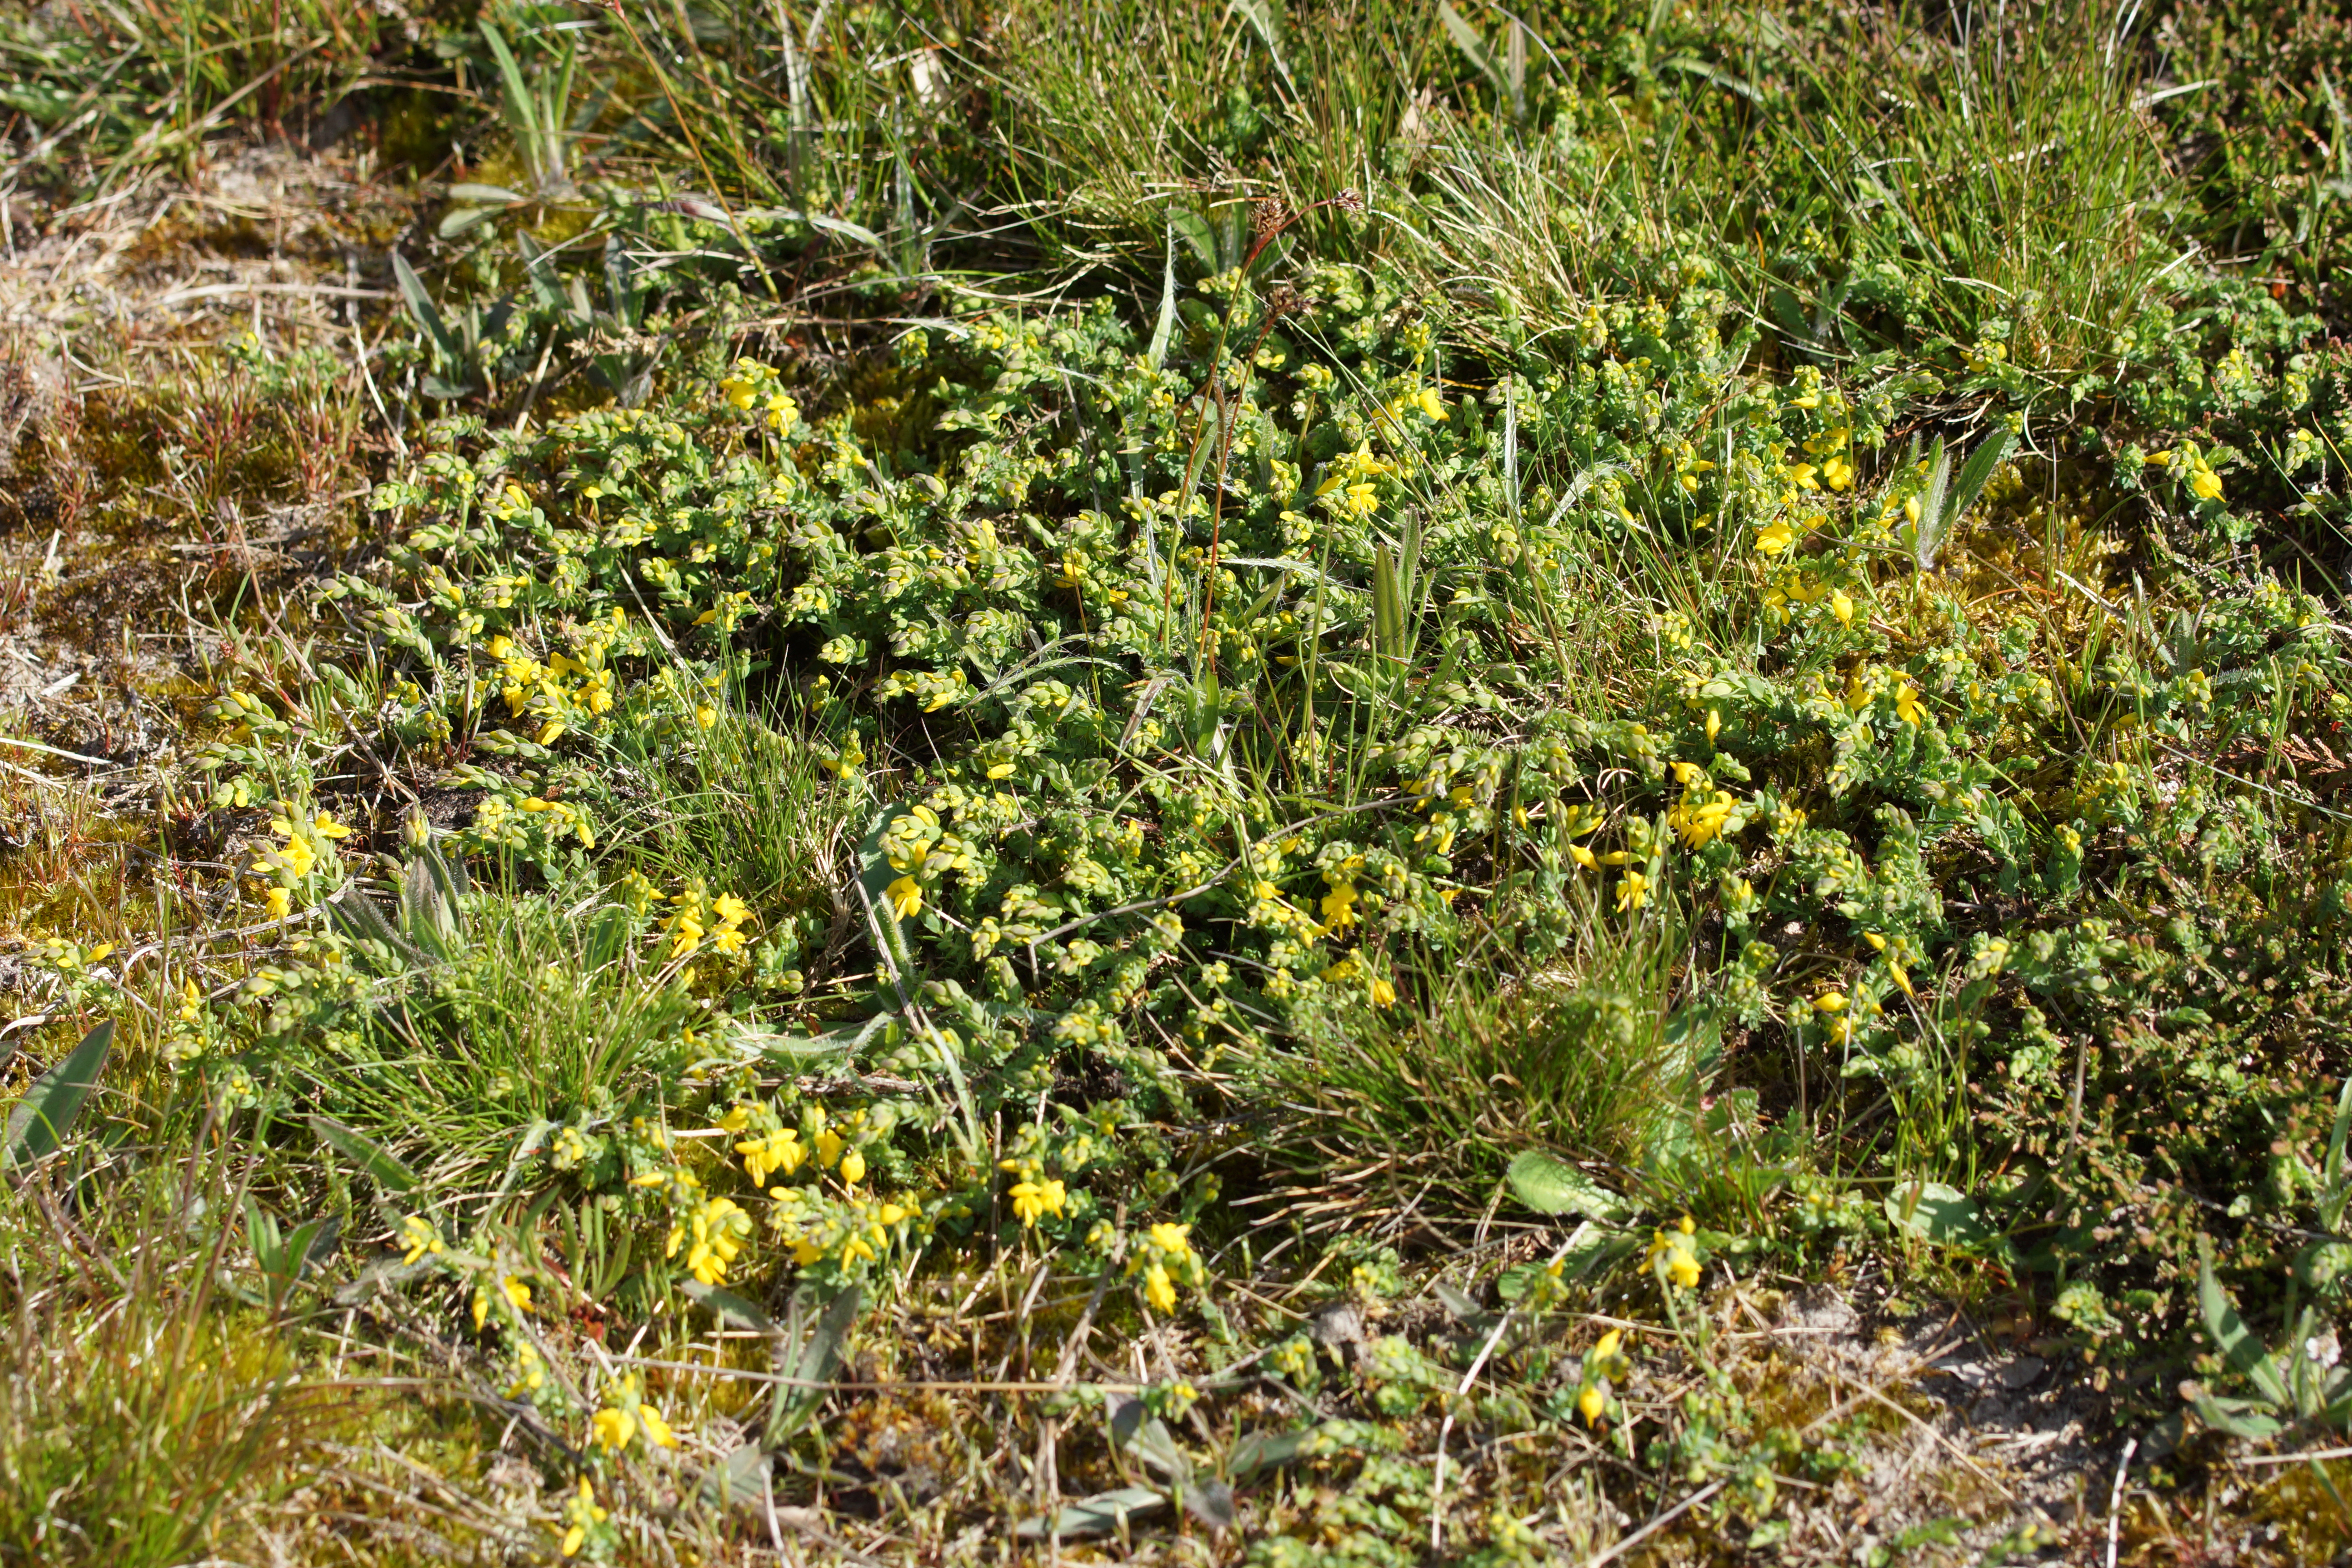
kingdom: Plantae
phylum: Tracheophyta
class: Magnoliopsida
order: Fabales
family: Fabaceae
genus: Genista
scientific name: Genista anglica
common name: Engelsk visse
